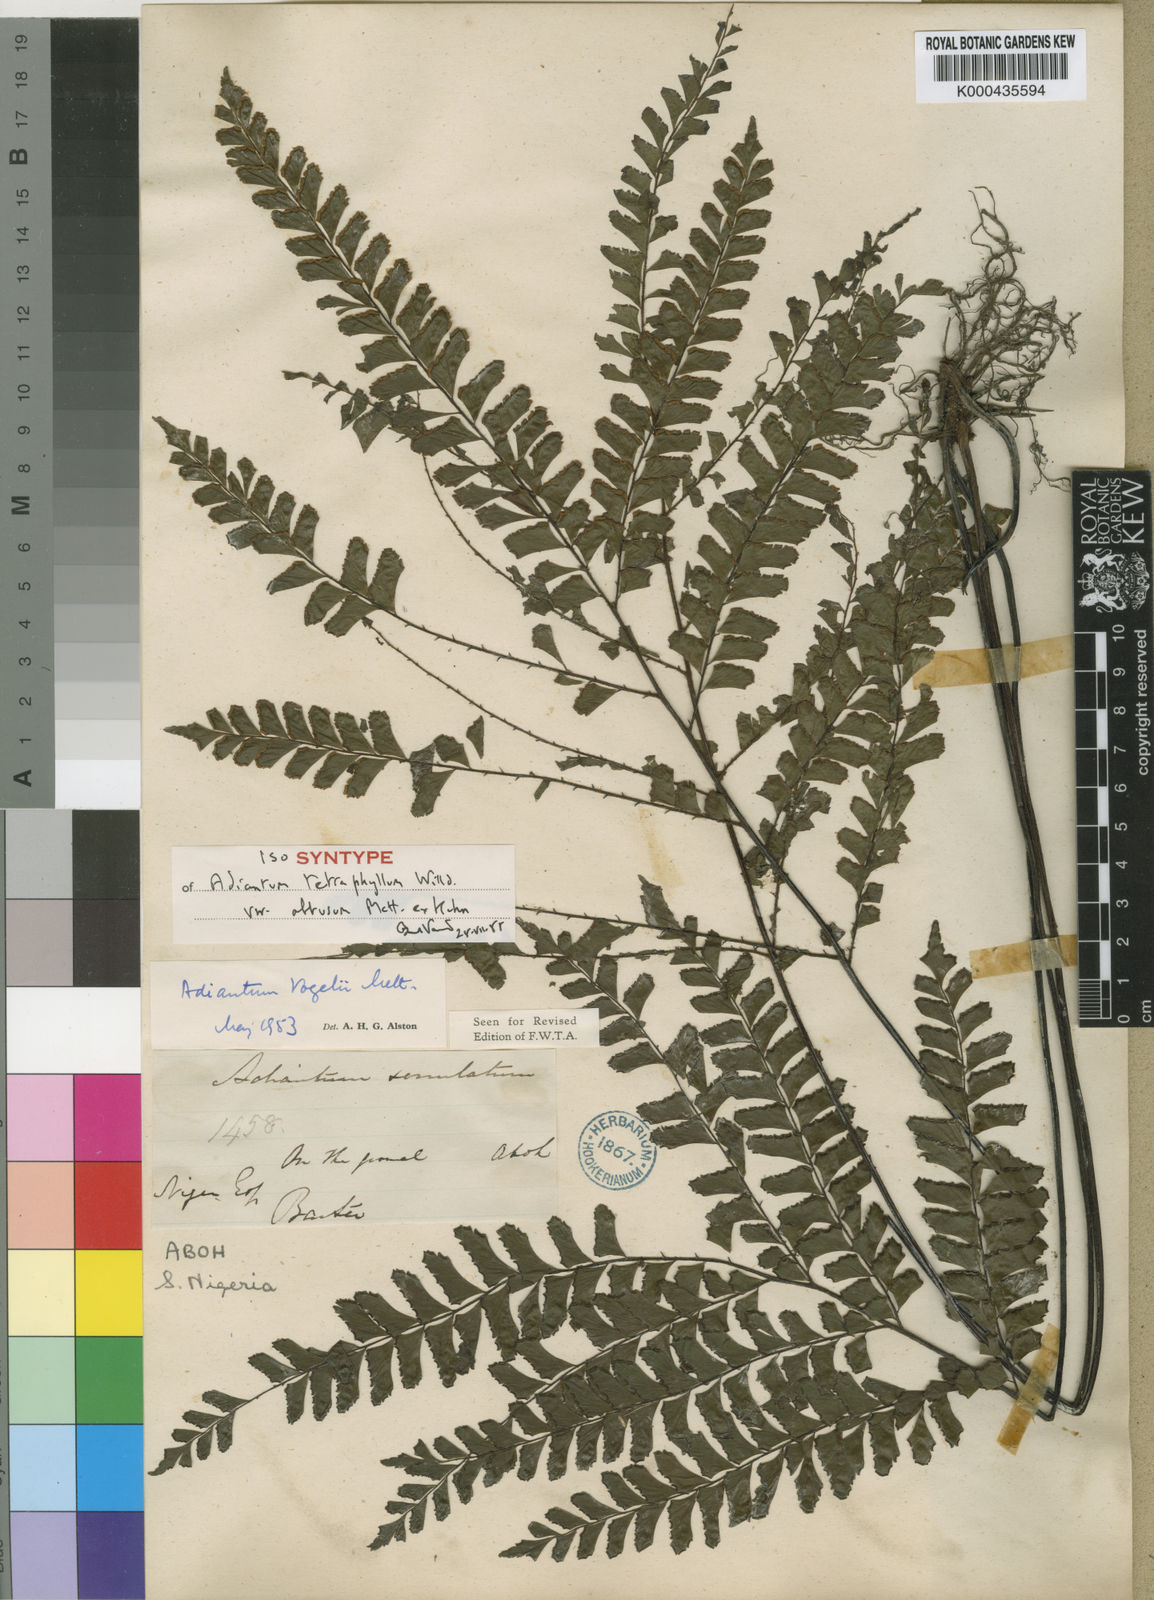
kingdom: Plantae
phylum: Tracheophyta
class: Polypodiopsida
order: Polypodiales
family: Pteridaceae
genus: Adiantum
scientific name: Adiantum
